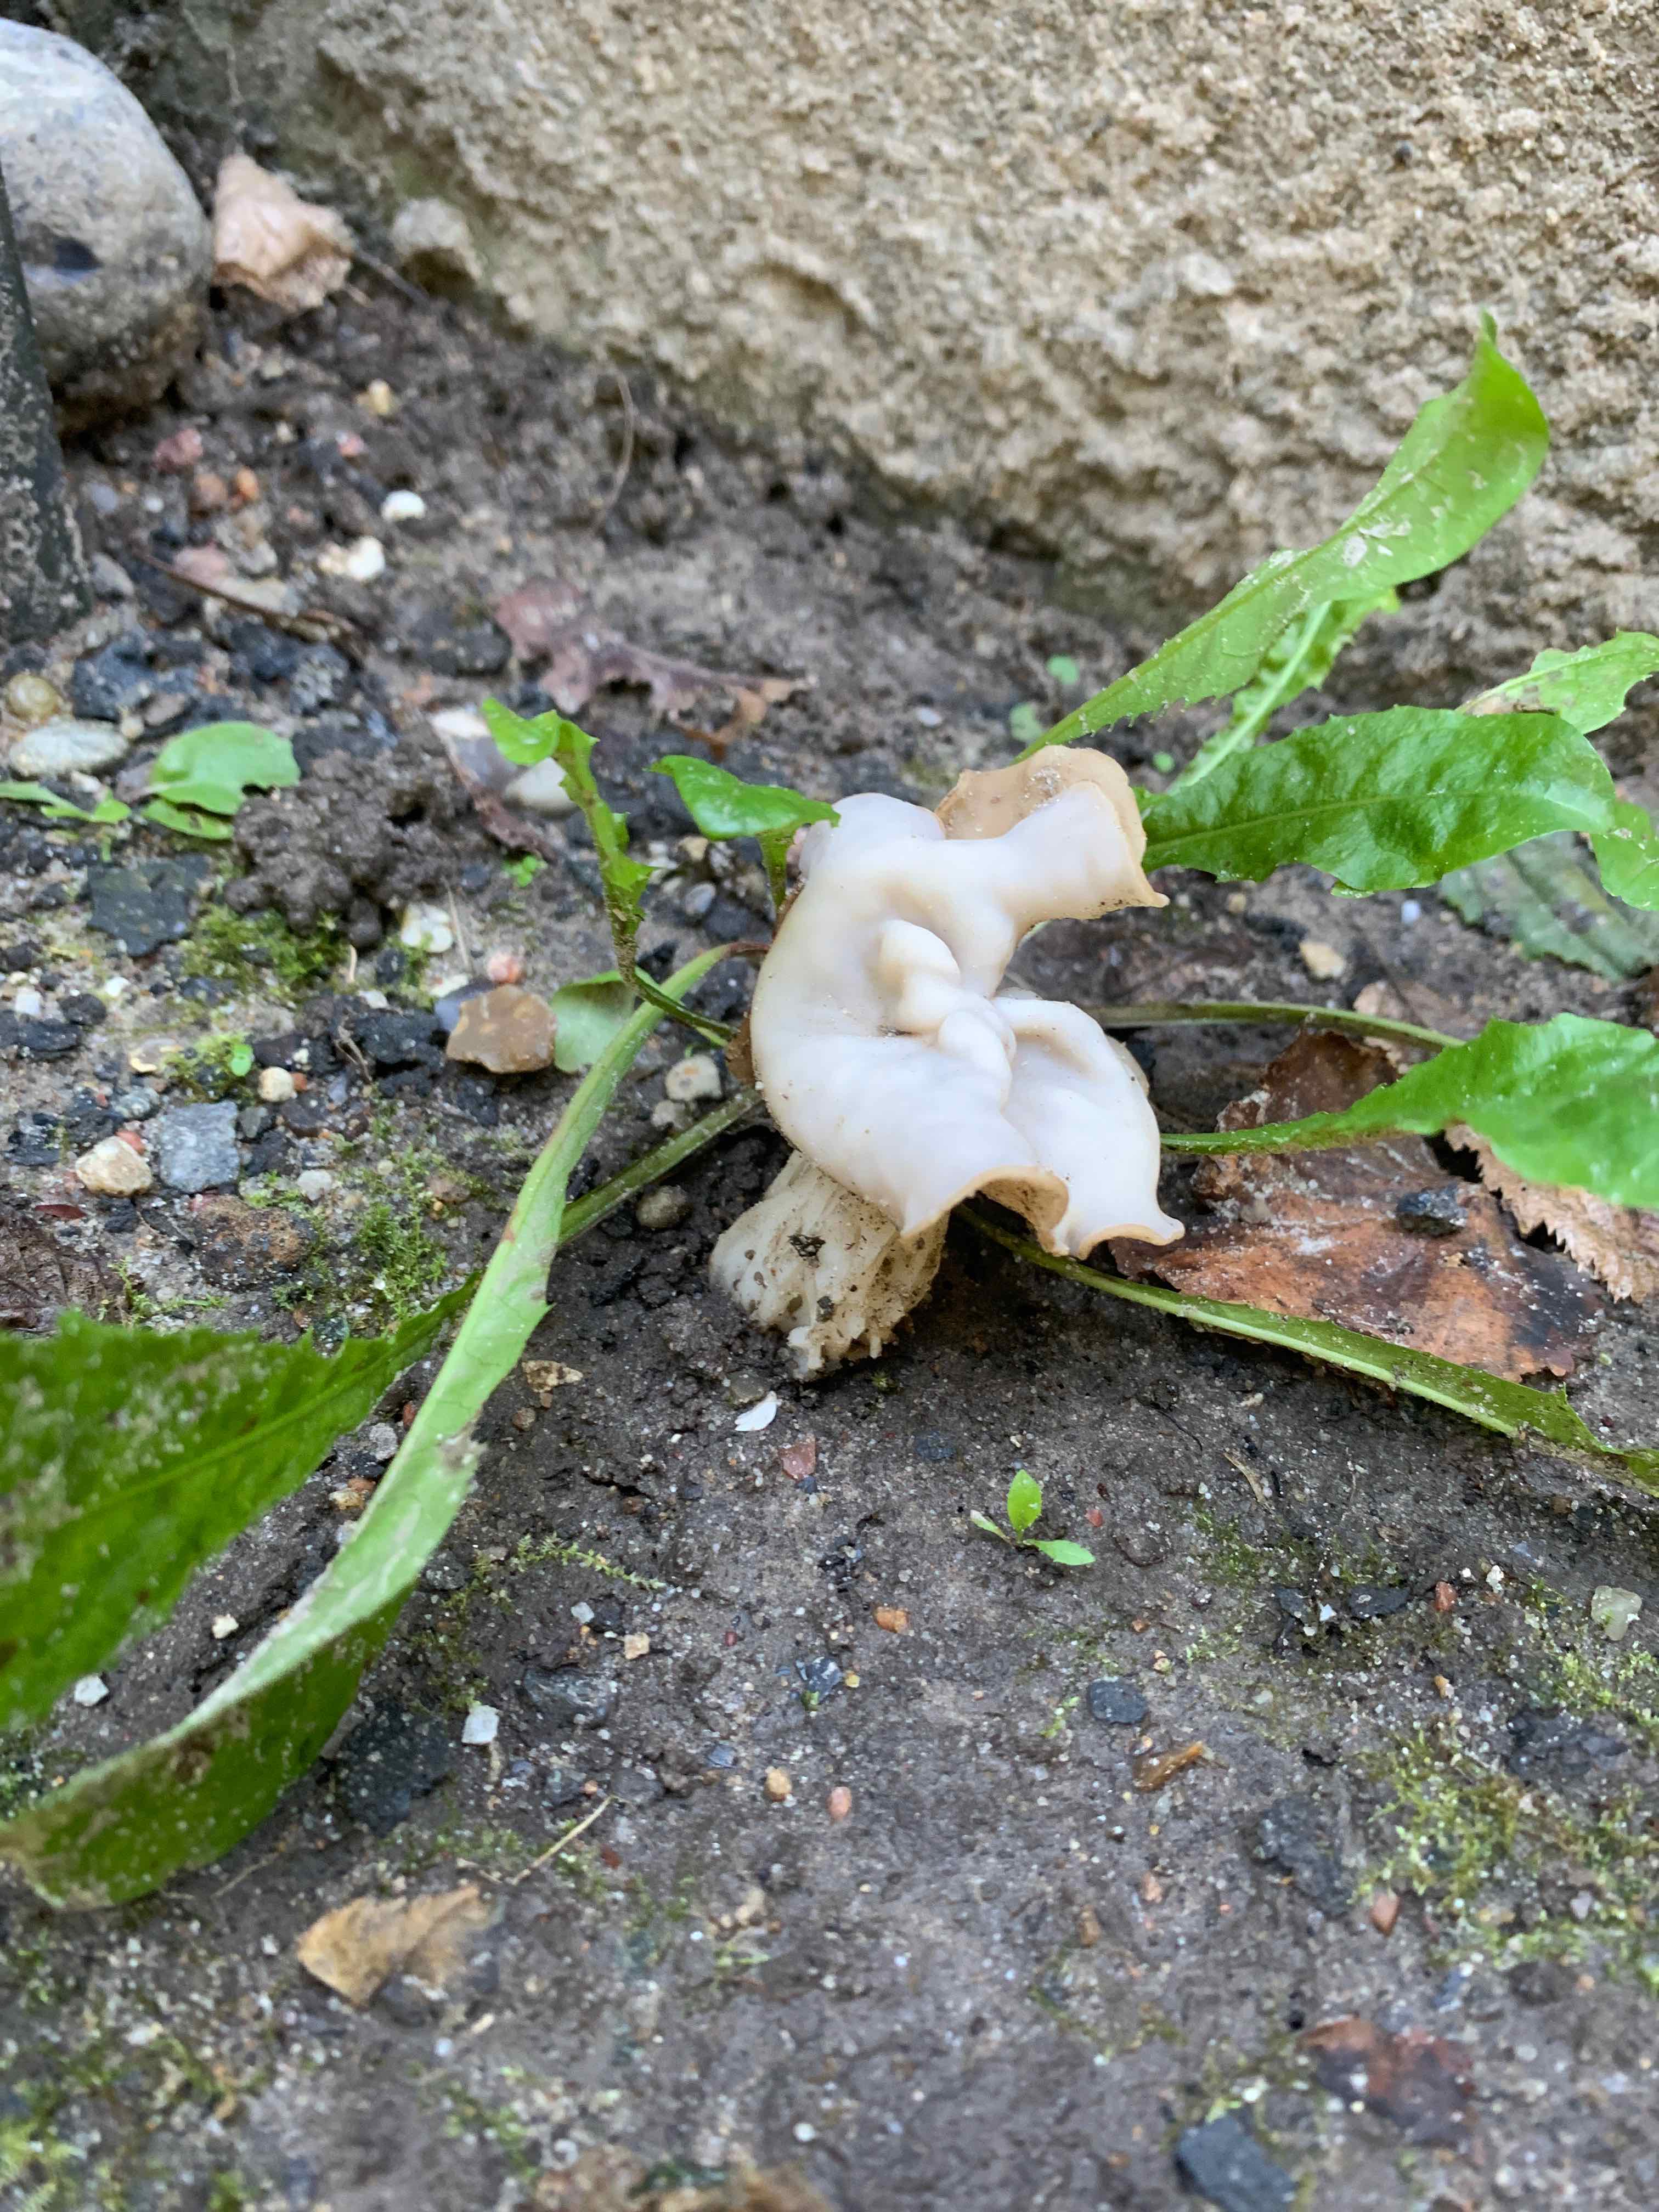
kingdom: Fungi
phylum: Ascomycota
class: Pezizomycetes
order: Pezizales
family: Helvellaceae
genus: Helvella
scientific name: Helvella crispa
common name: kruset foldhat
